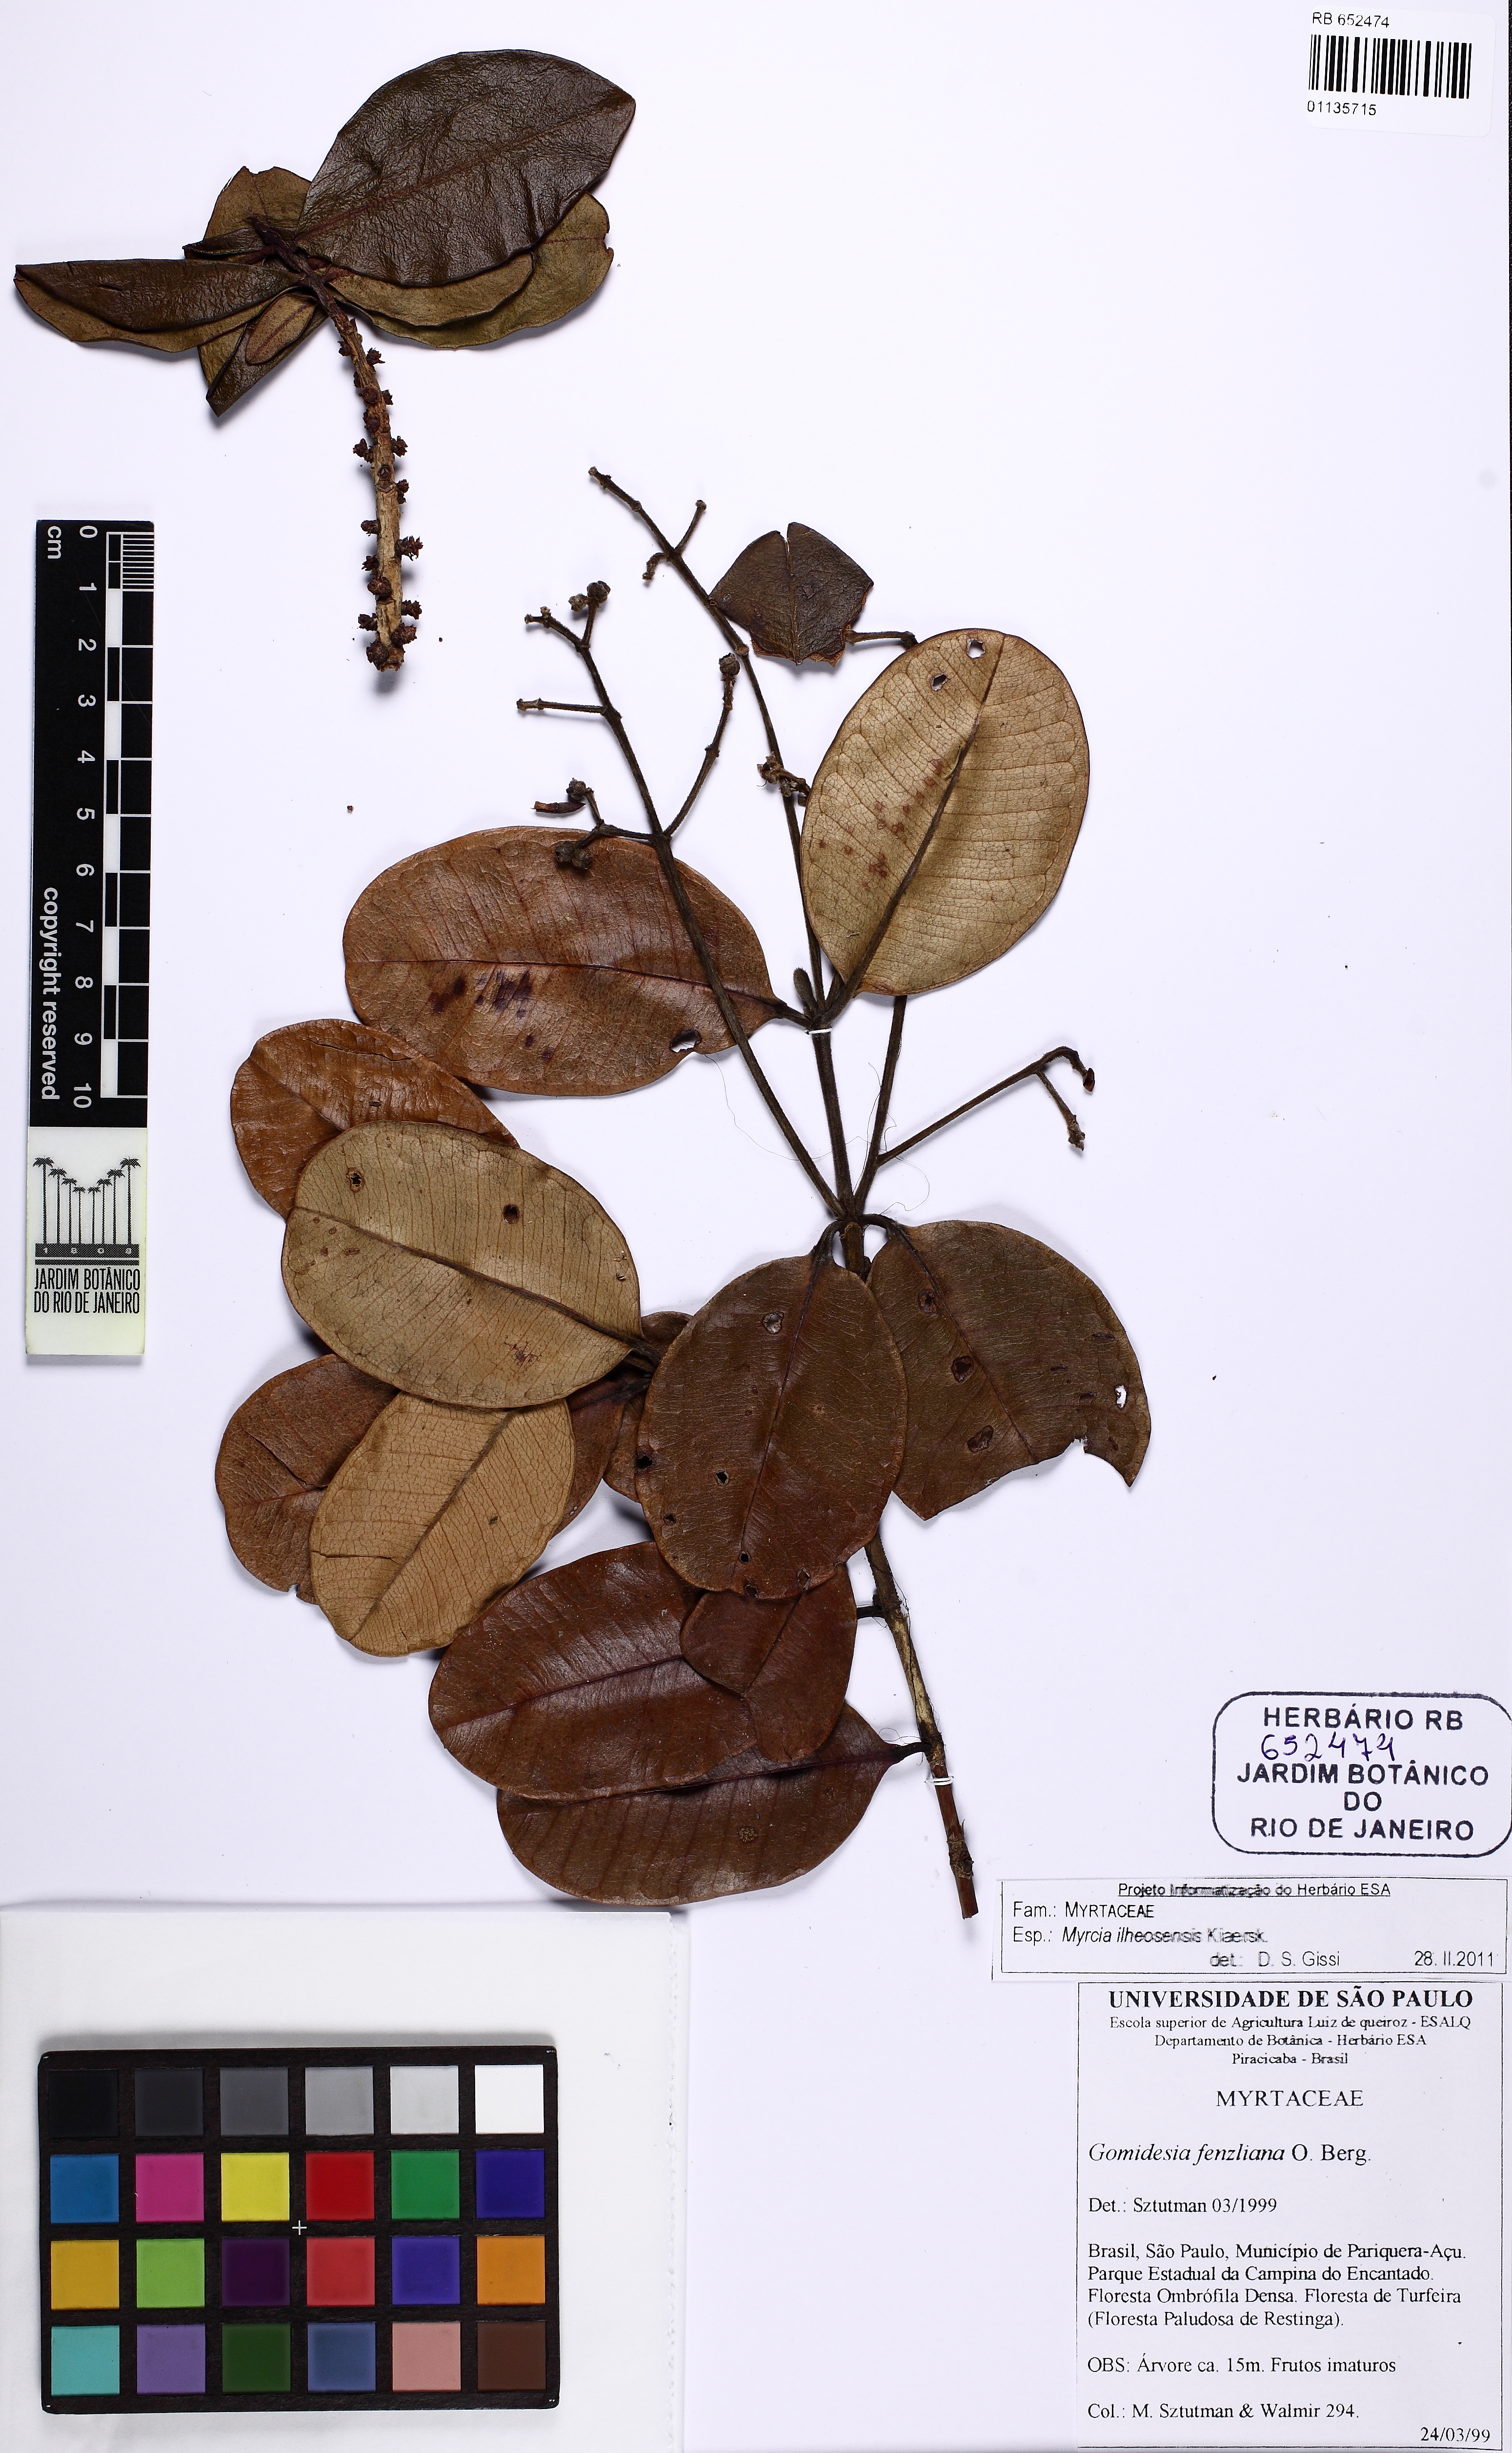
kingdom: Plantae
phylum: Tracheophyta
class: Magnoliopsida
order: Myrtales
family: Myrtaceae
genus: Myrcia
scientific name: Myrcia ilheosensis
